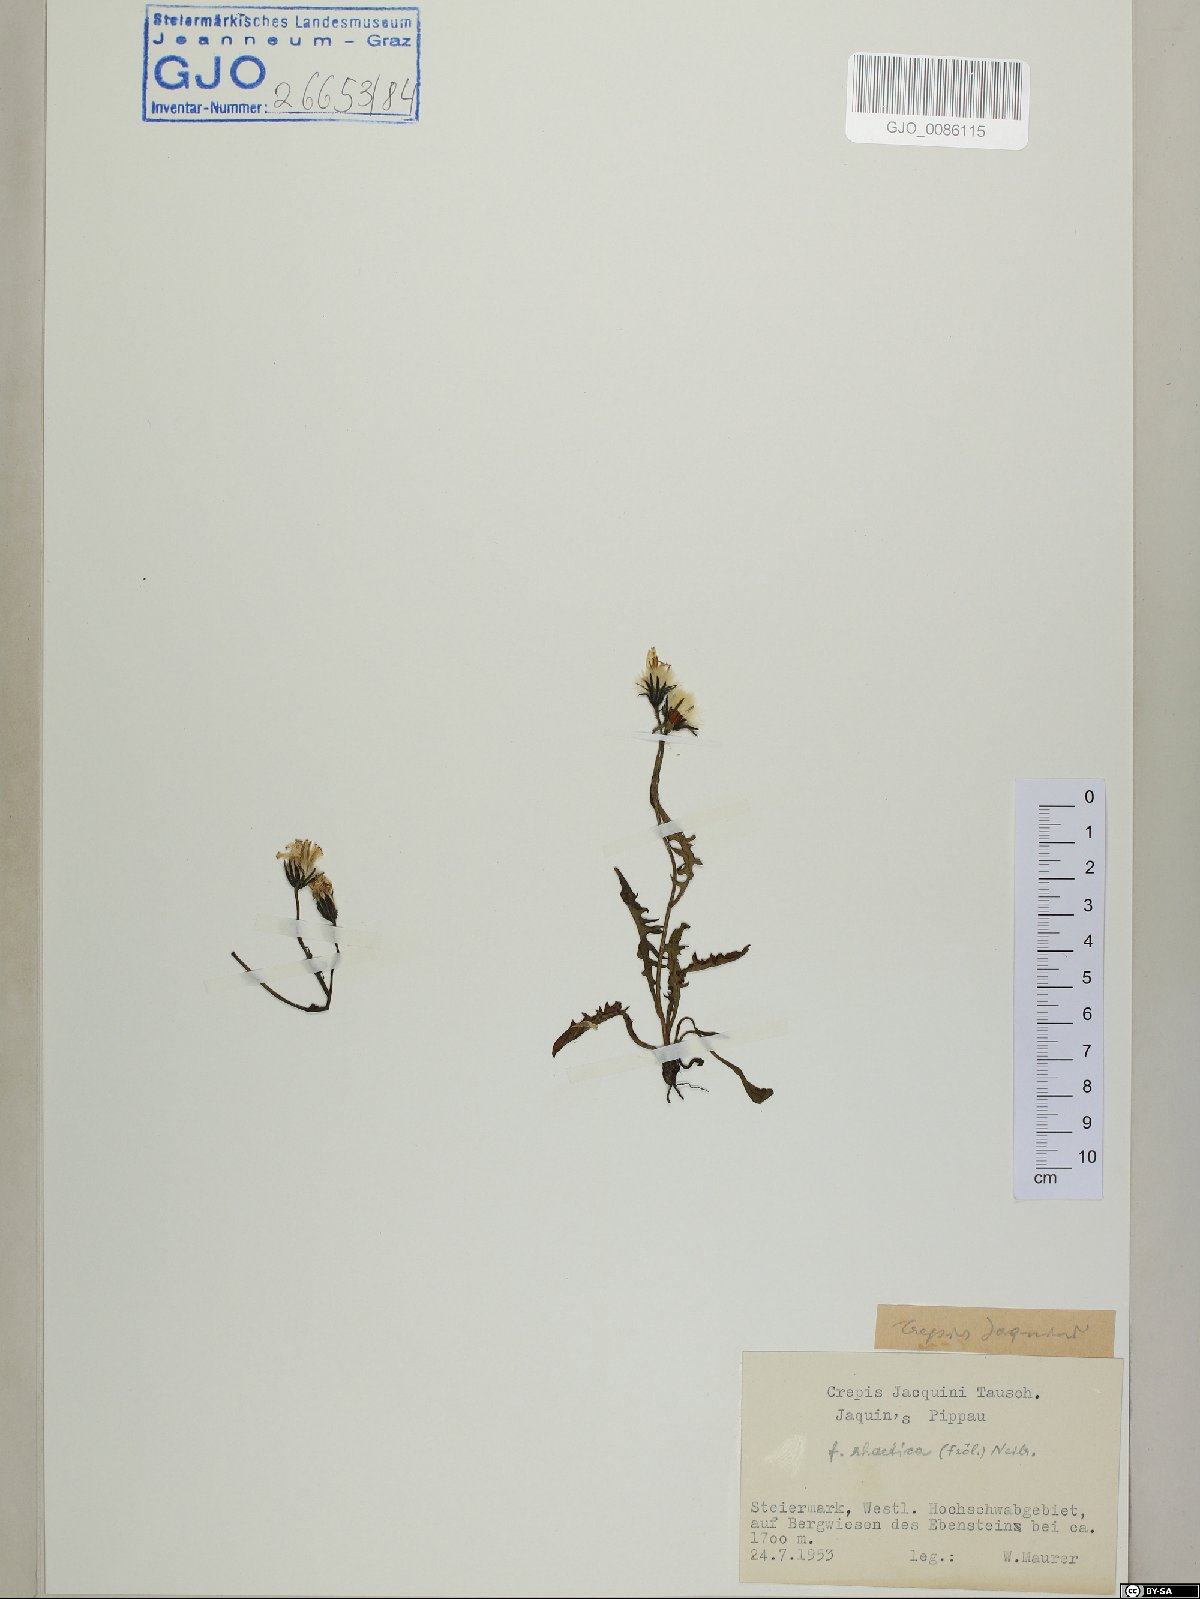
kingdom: Plantae
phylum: Tracheophyta
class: Magnoliopsida
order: Asterales
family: Asteraceae
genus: Crepis
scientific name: Crepis jacquinii
